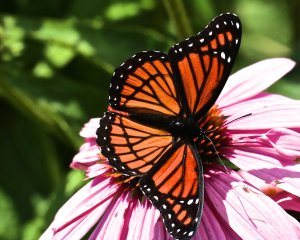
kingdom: Animalia
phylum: Arthropoda
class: Insecta
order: Lepidoptera
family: Nymphalidae
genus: Limenitis
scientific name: Limenitis archippus
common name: Viceroy
